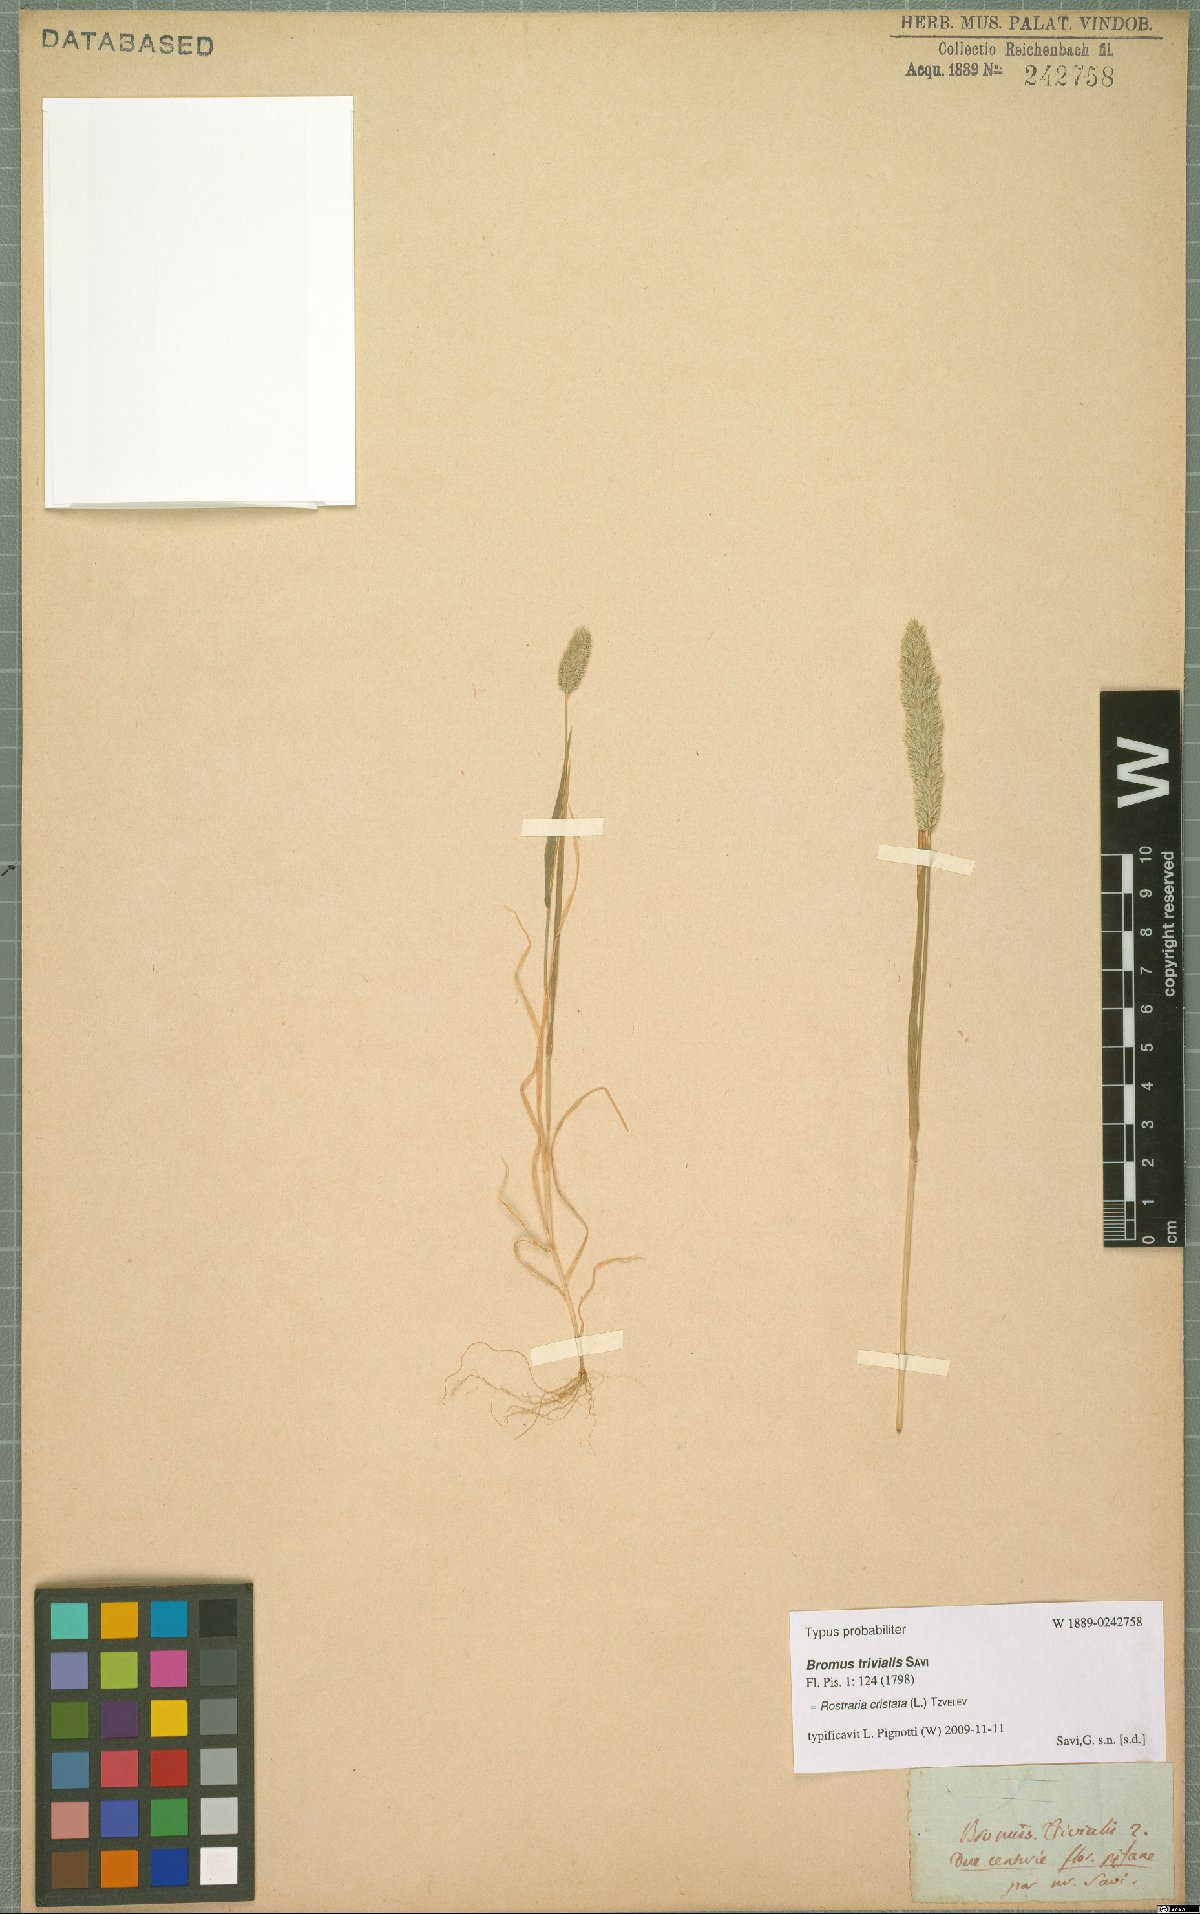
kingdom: Plantae
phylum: Tracheophyta
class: Liliopsida
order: Poales
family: Poaceae
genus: Rostraria
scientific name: Rostraria cristata
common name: Mediterranean hair-grass
